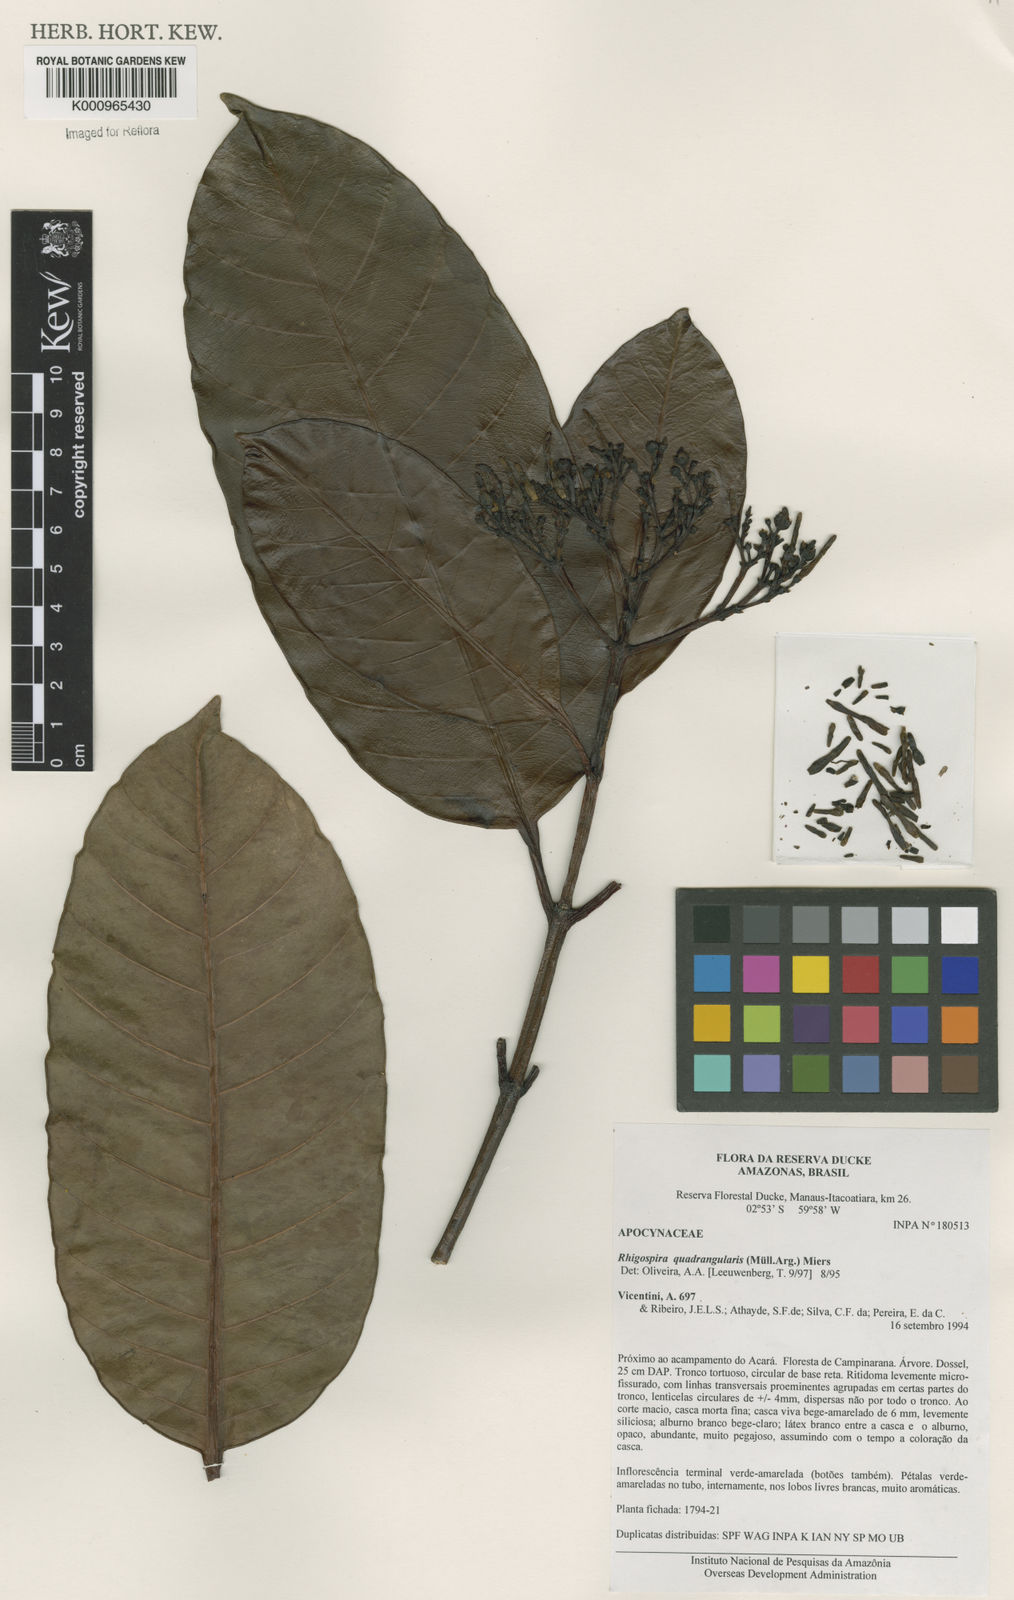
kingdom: Plantae
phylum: Tracheophyta
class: Magnoliopsida
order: Gentianales
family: Apocynaceae
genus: Rhigospira
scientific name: Rhigospira quadrangularis
